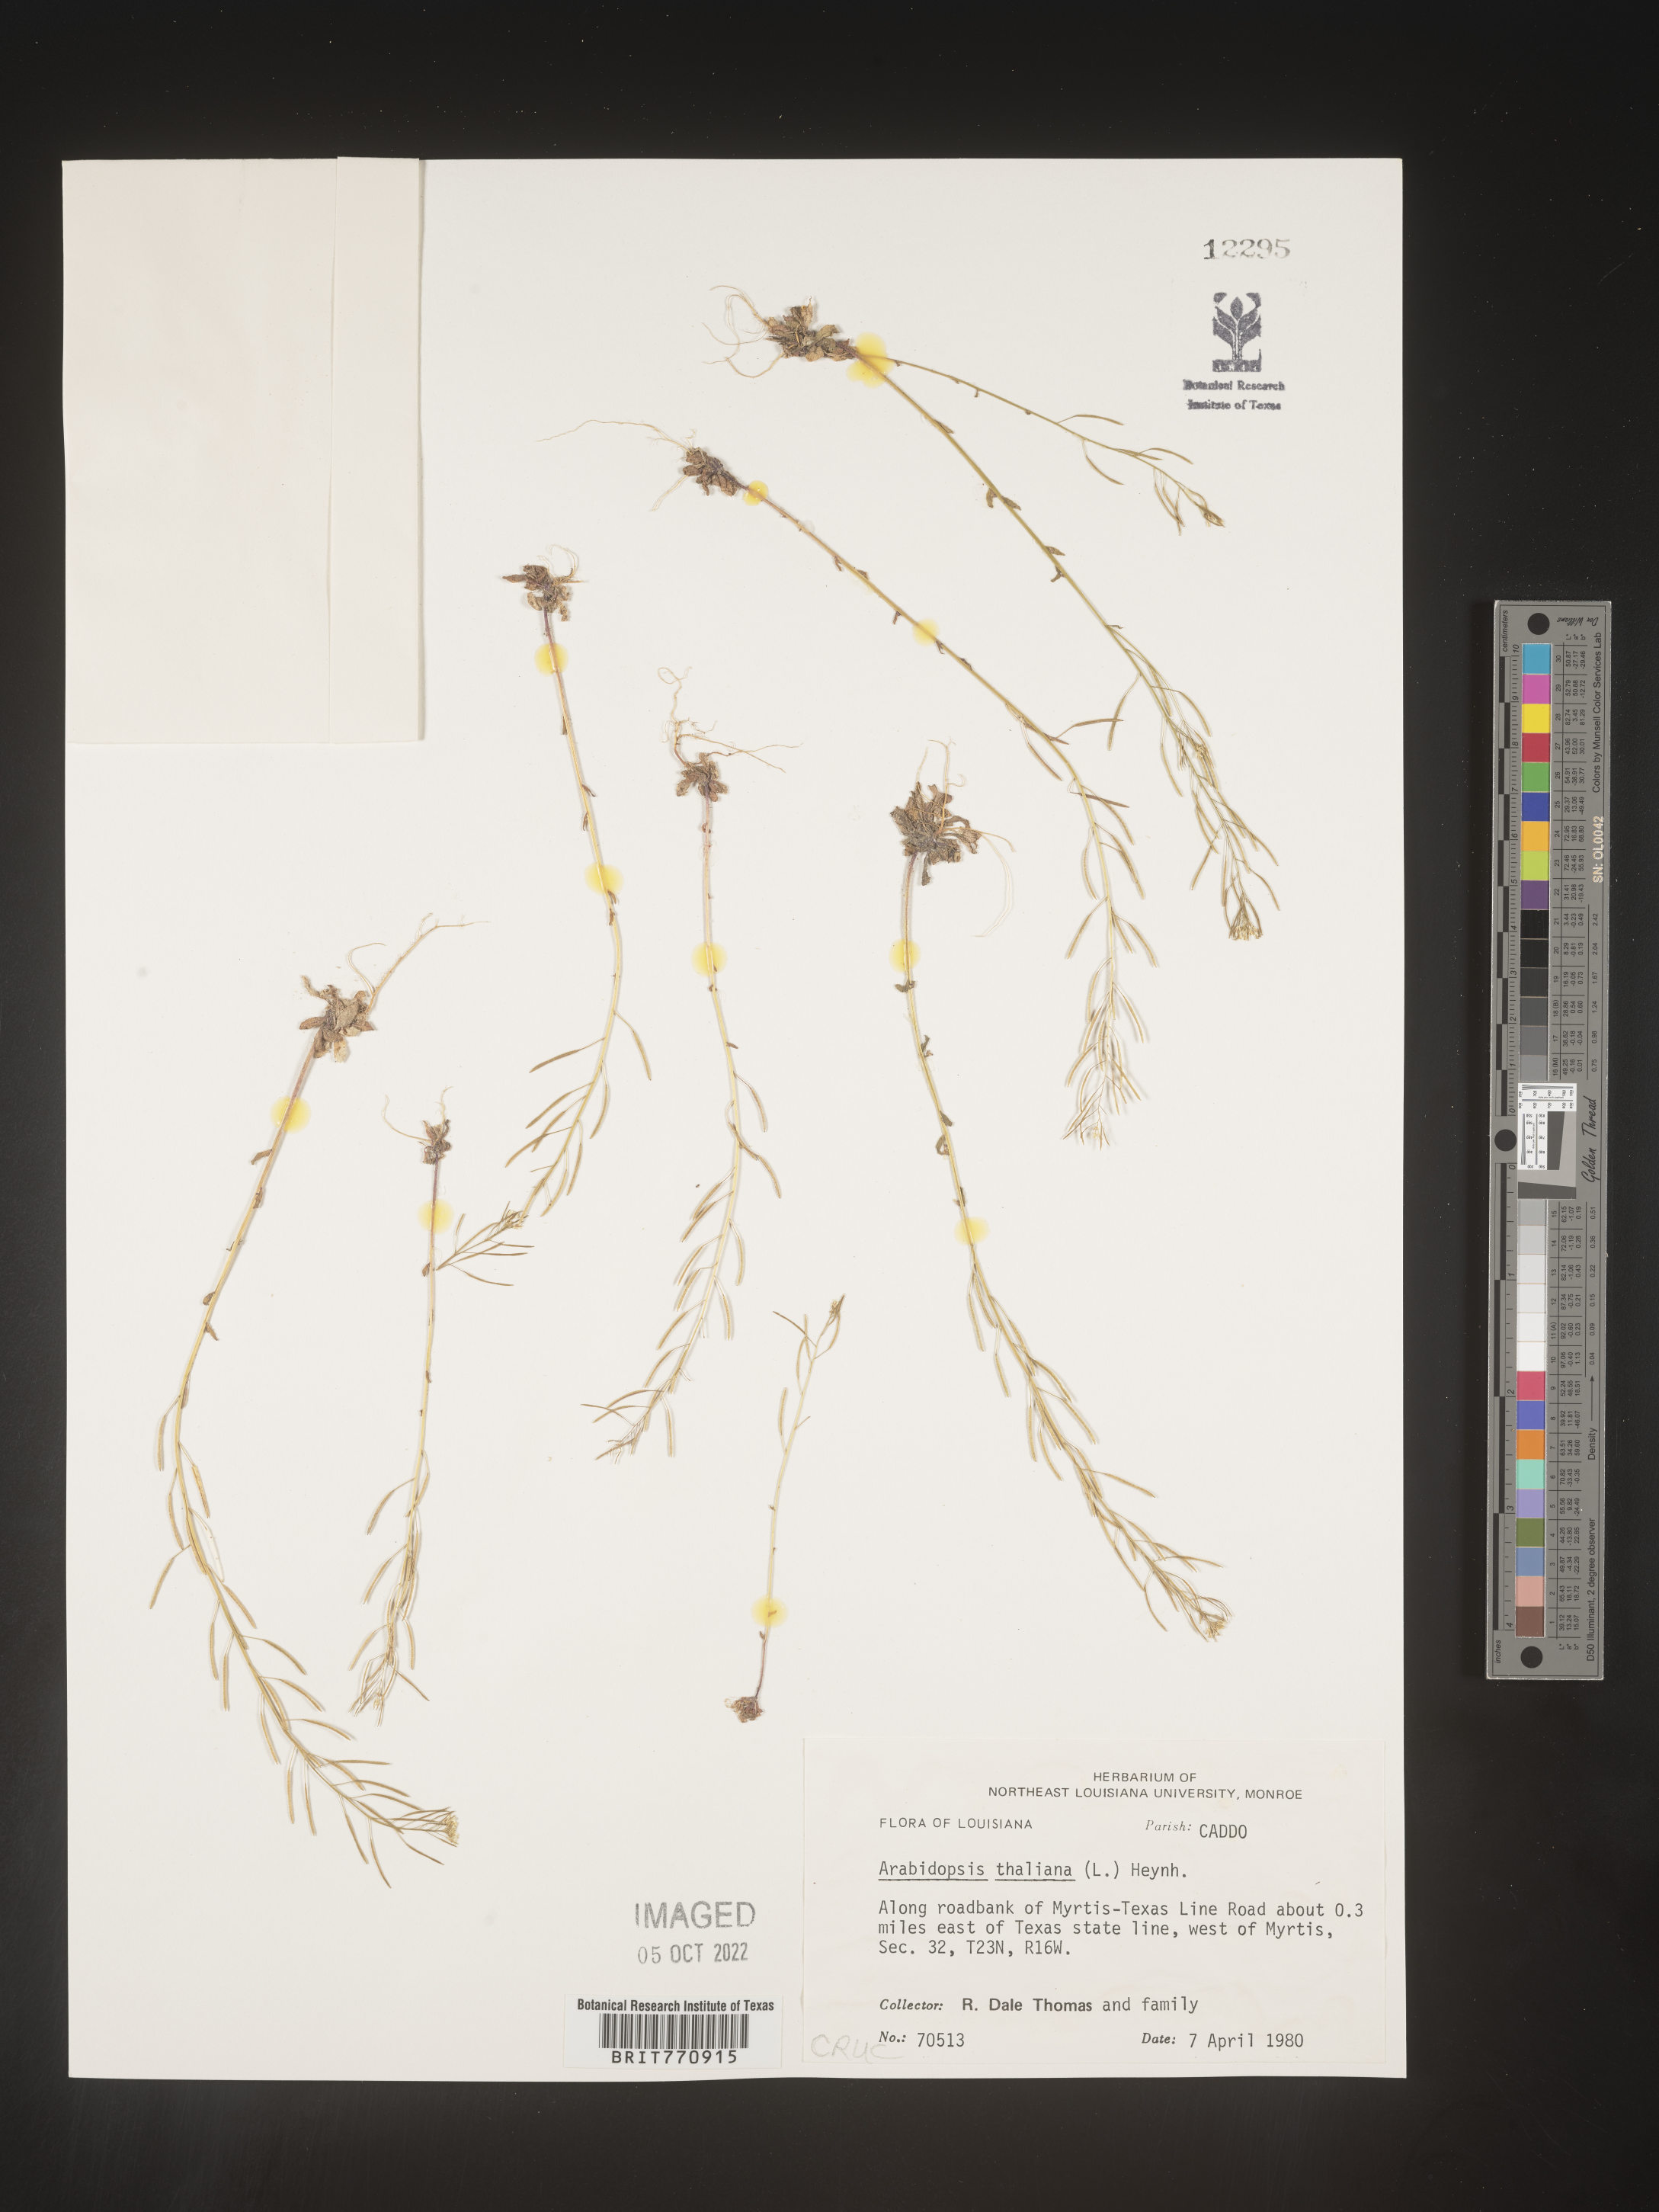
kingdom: Plantae
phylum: Tracheophyta
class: Magnoliopsida
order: Brassicales
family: Brassicaceae
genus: Arabidopsis
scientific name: Arabidopsis thaliana
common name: Thale cress
